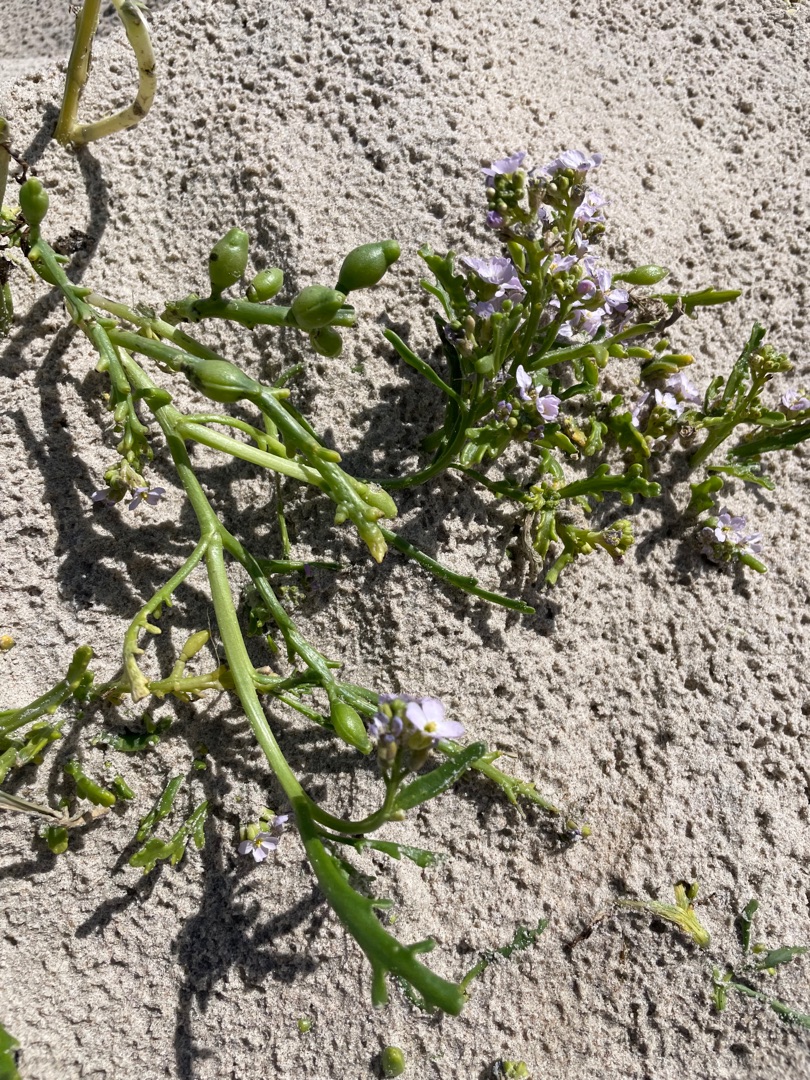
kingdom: Plantae
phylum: Tracheophyta
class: Magnoliopsida
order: Brassicales
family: Brassicaceae
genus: Cakile
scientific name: Cakile maritima
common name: Strandsennep
